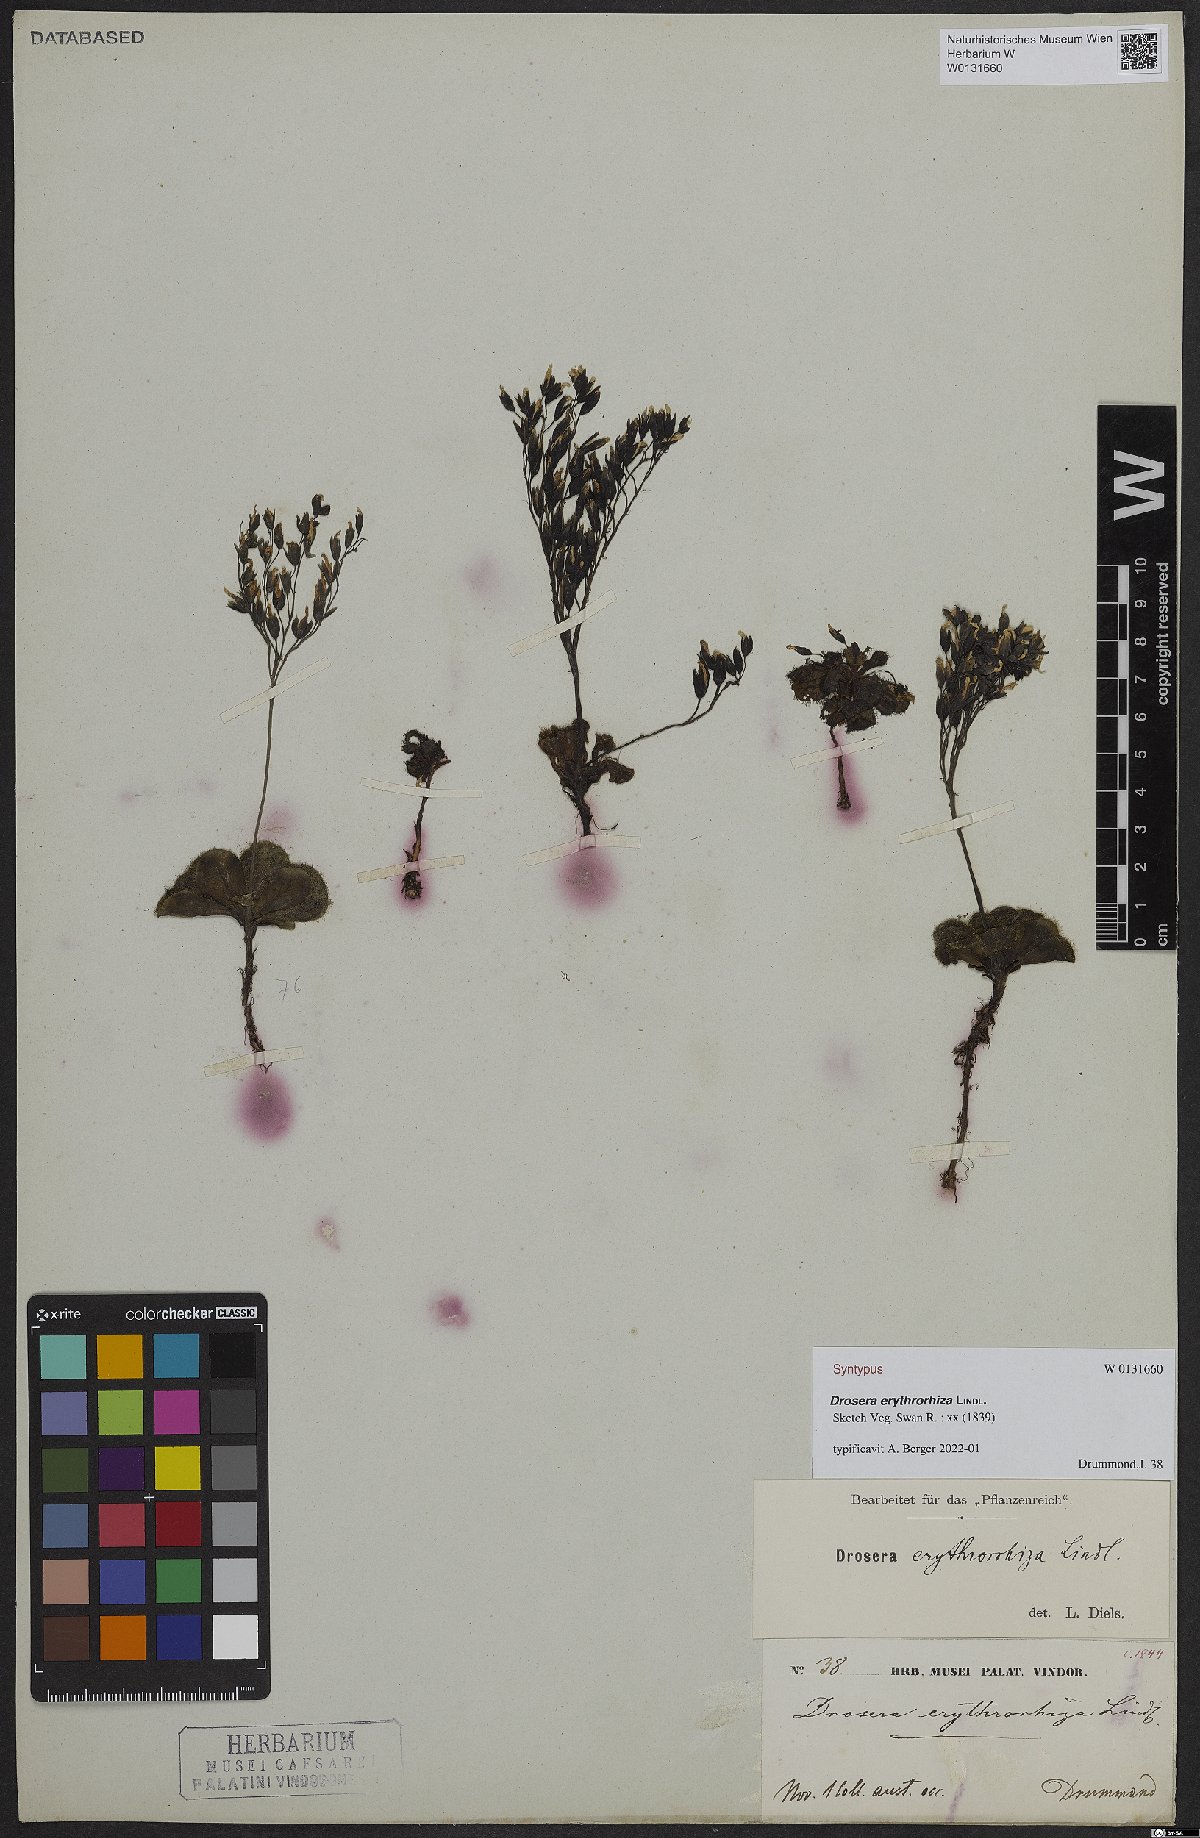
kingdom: Plantae
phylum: Tracheophyta
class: Magnoliopsida
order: Caryophyllales
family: Droseraceae
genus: Drosera
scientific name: Drosera erythrorhiza
